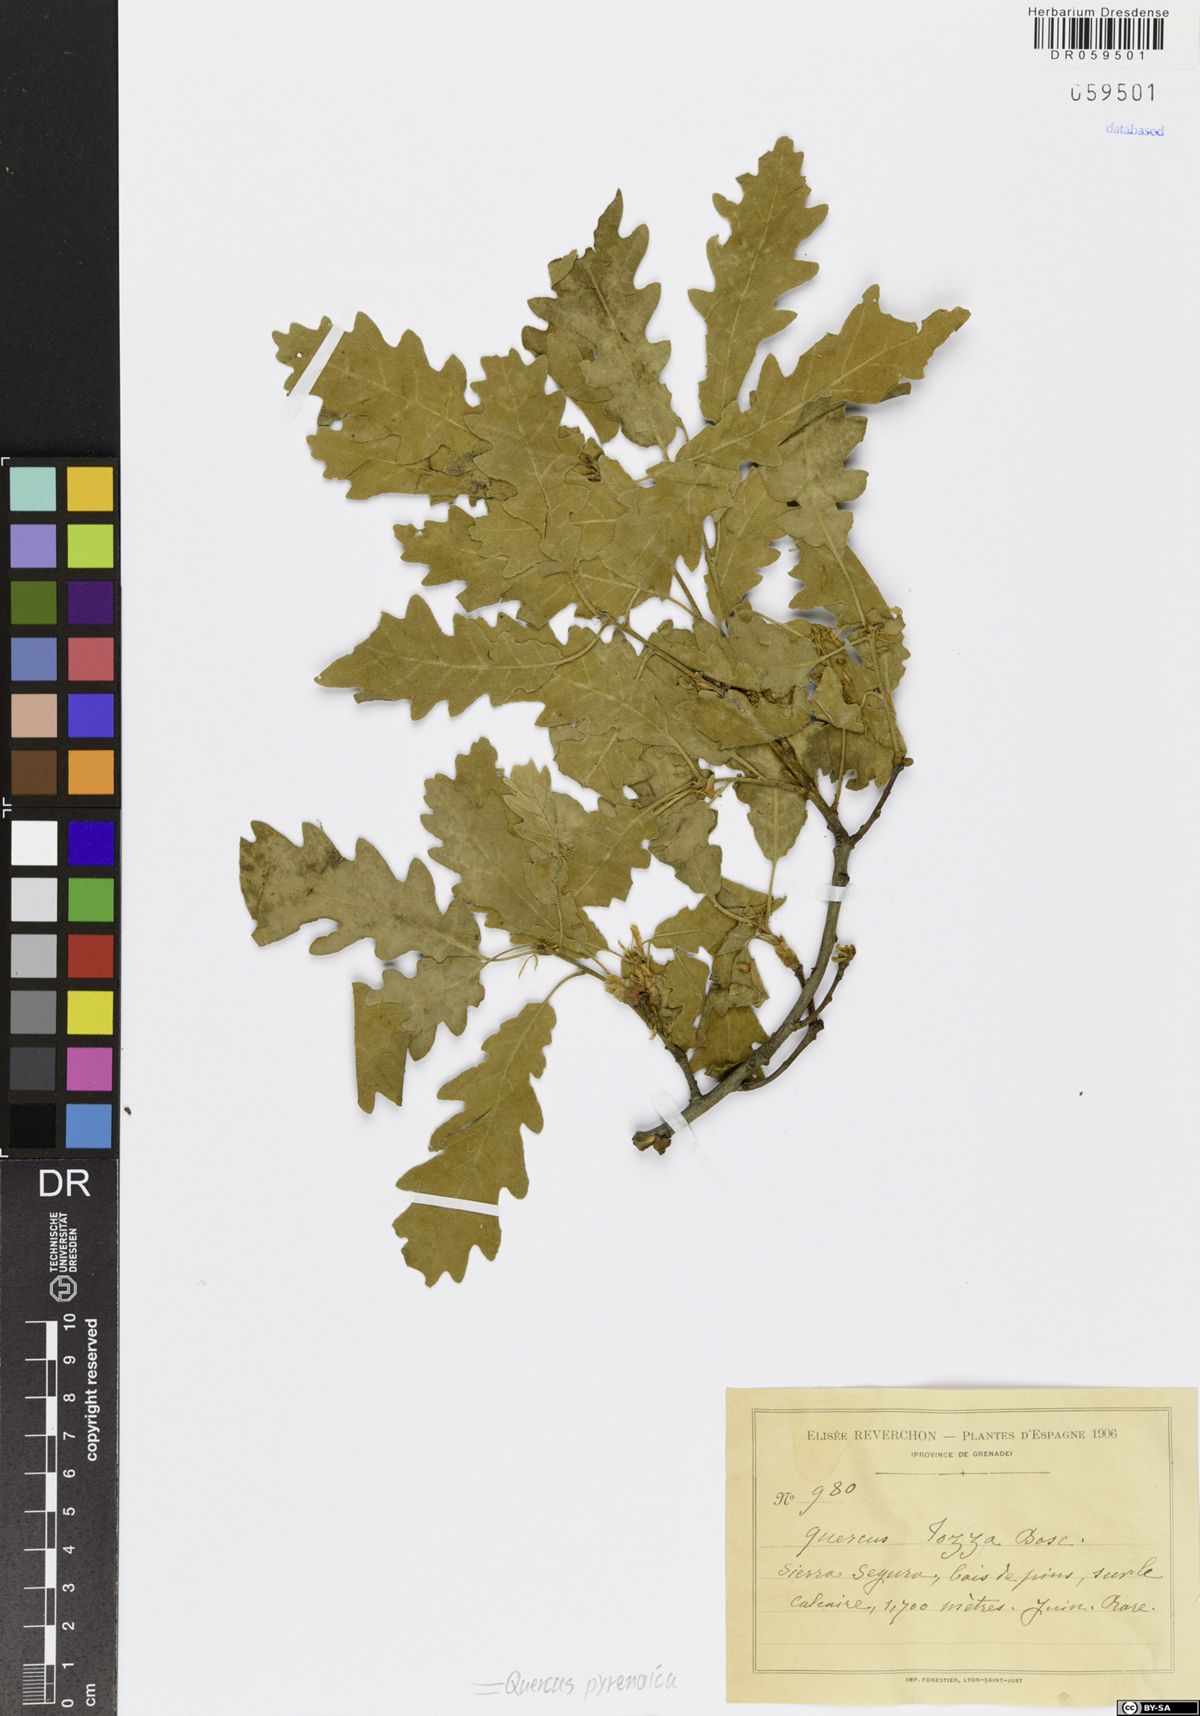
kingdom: Plantae
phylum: Tracheophyta
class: Magnoliopsida
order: Fagales
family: Fagaceae
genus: Quercus
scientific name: Quercus pyrenaica
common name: Pyrenean oak
